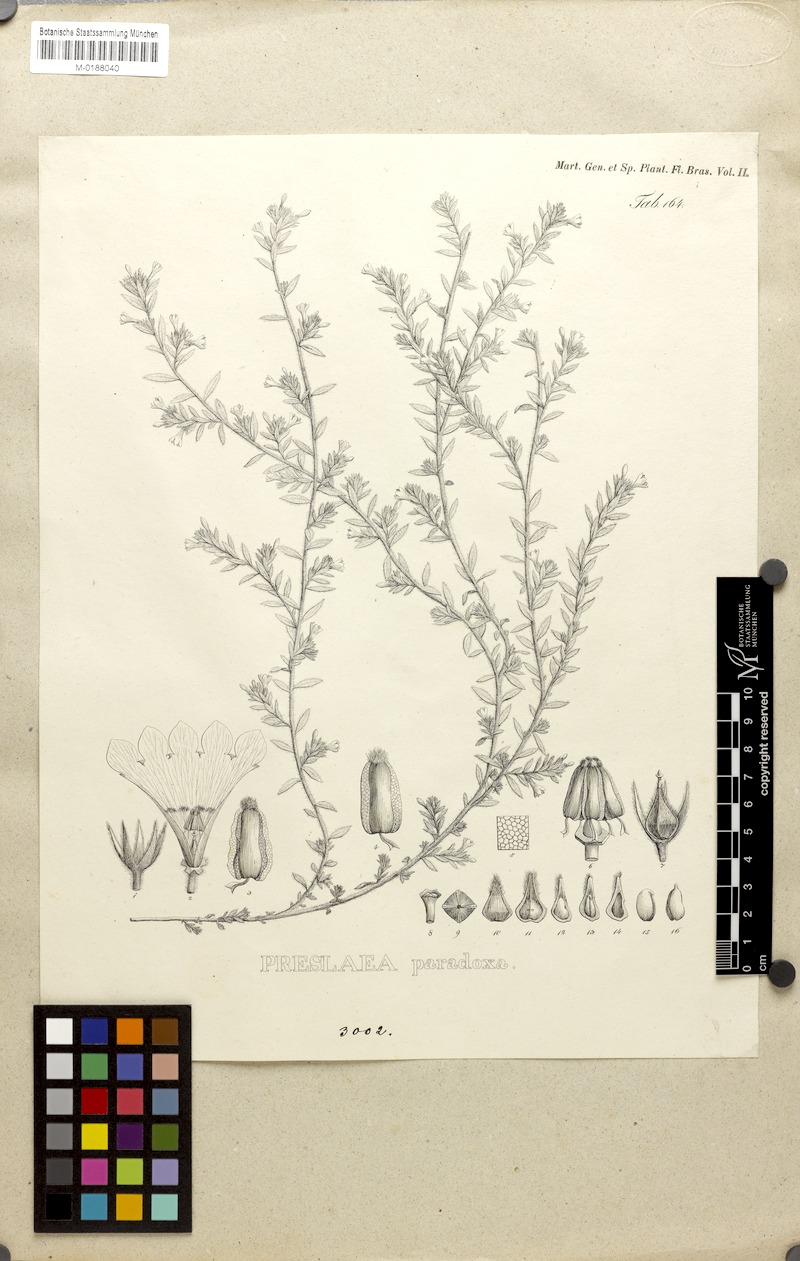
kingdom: Plantae
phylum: Tracheophyta
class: Magnoliopsida
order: Boraginales
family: Heliotropiaceae
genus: Euploca
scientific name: Euploca paradoxa
